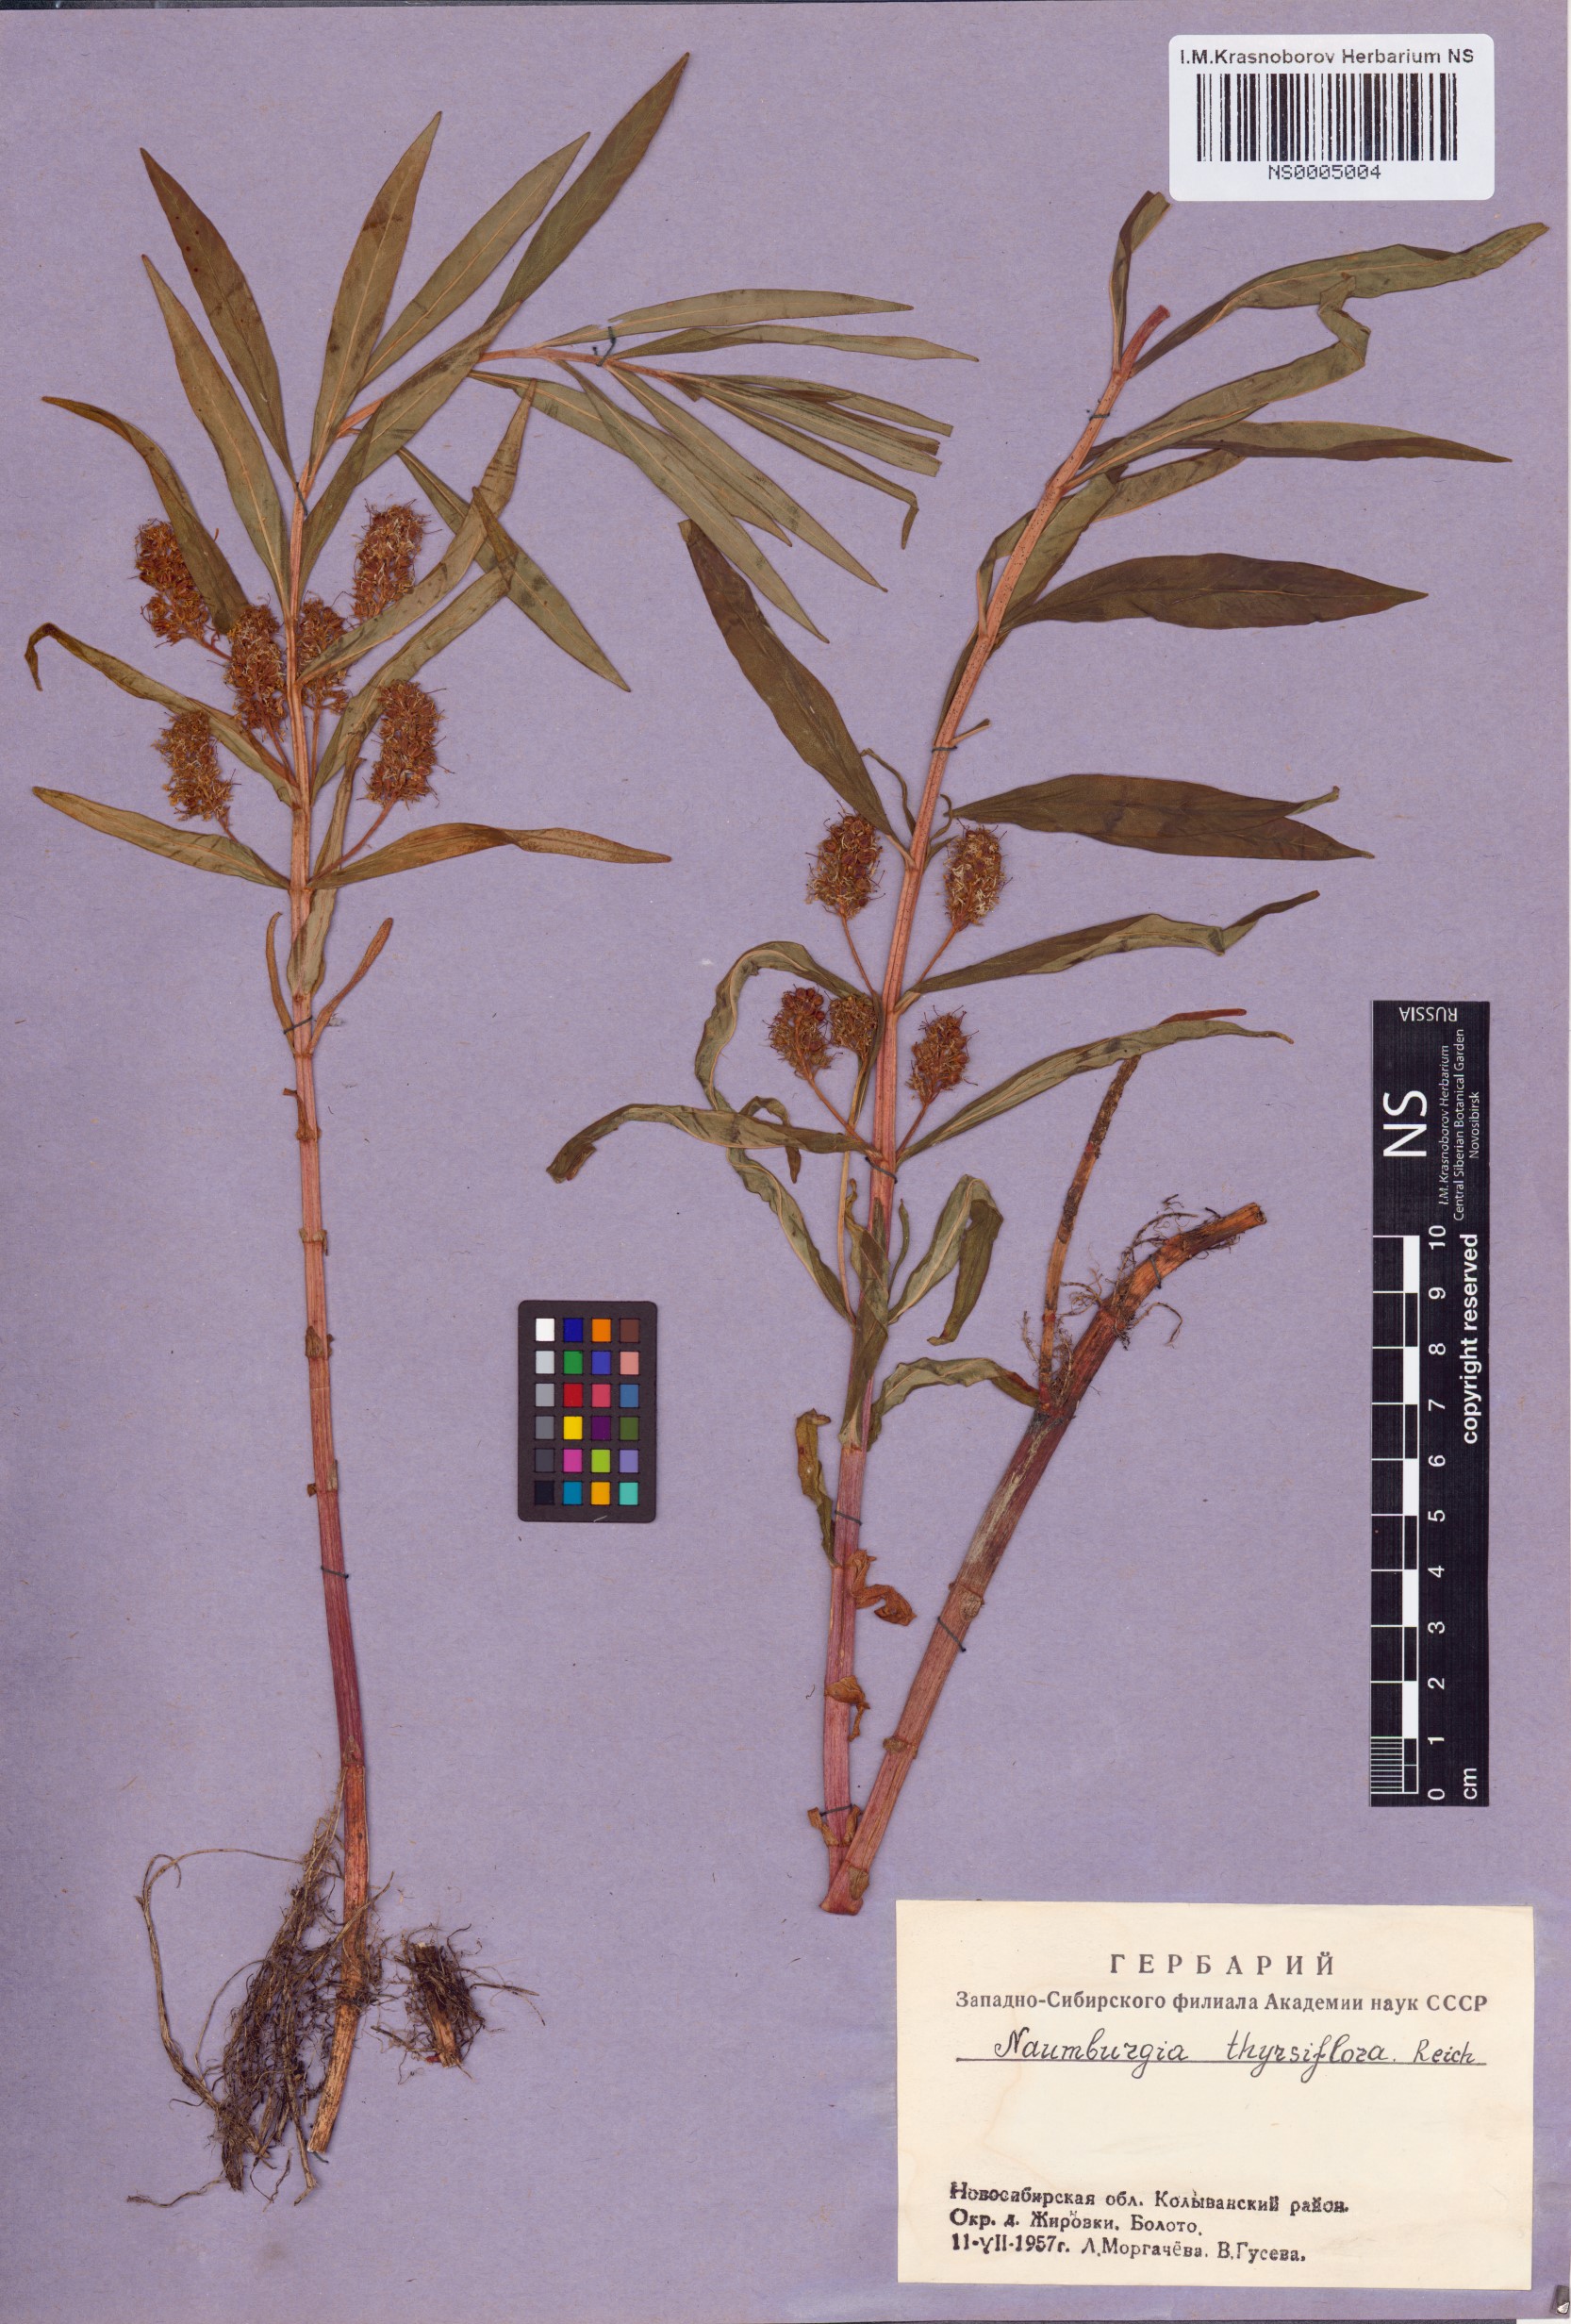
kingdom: Plantae
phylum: Tracheophyta
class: Magnoliopsida
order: Ericales
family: Primulaceae
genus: Lysimachia
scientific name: Lysimachia thyrsiflora
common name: Tufted loosestrife
